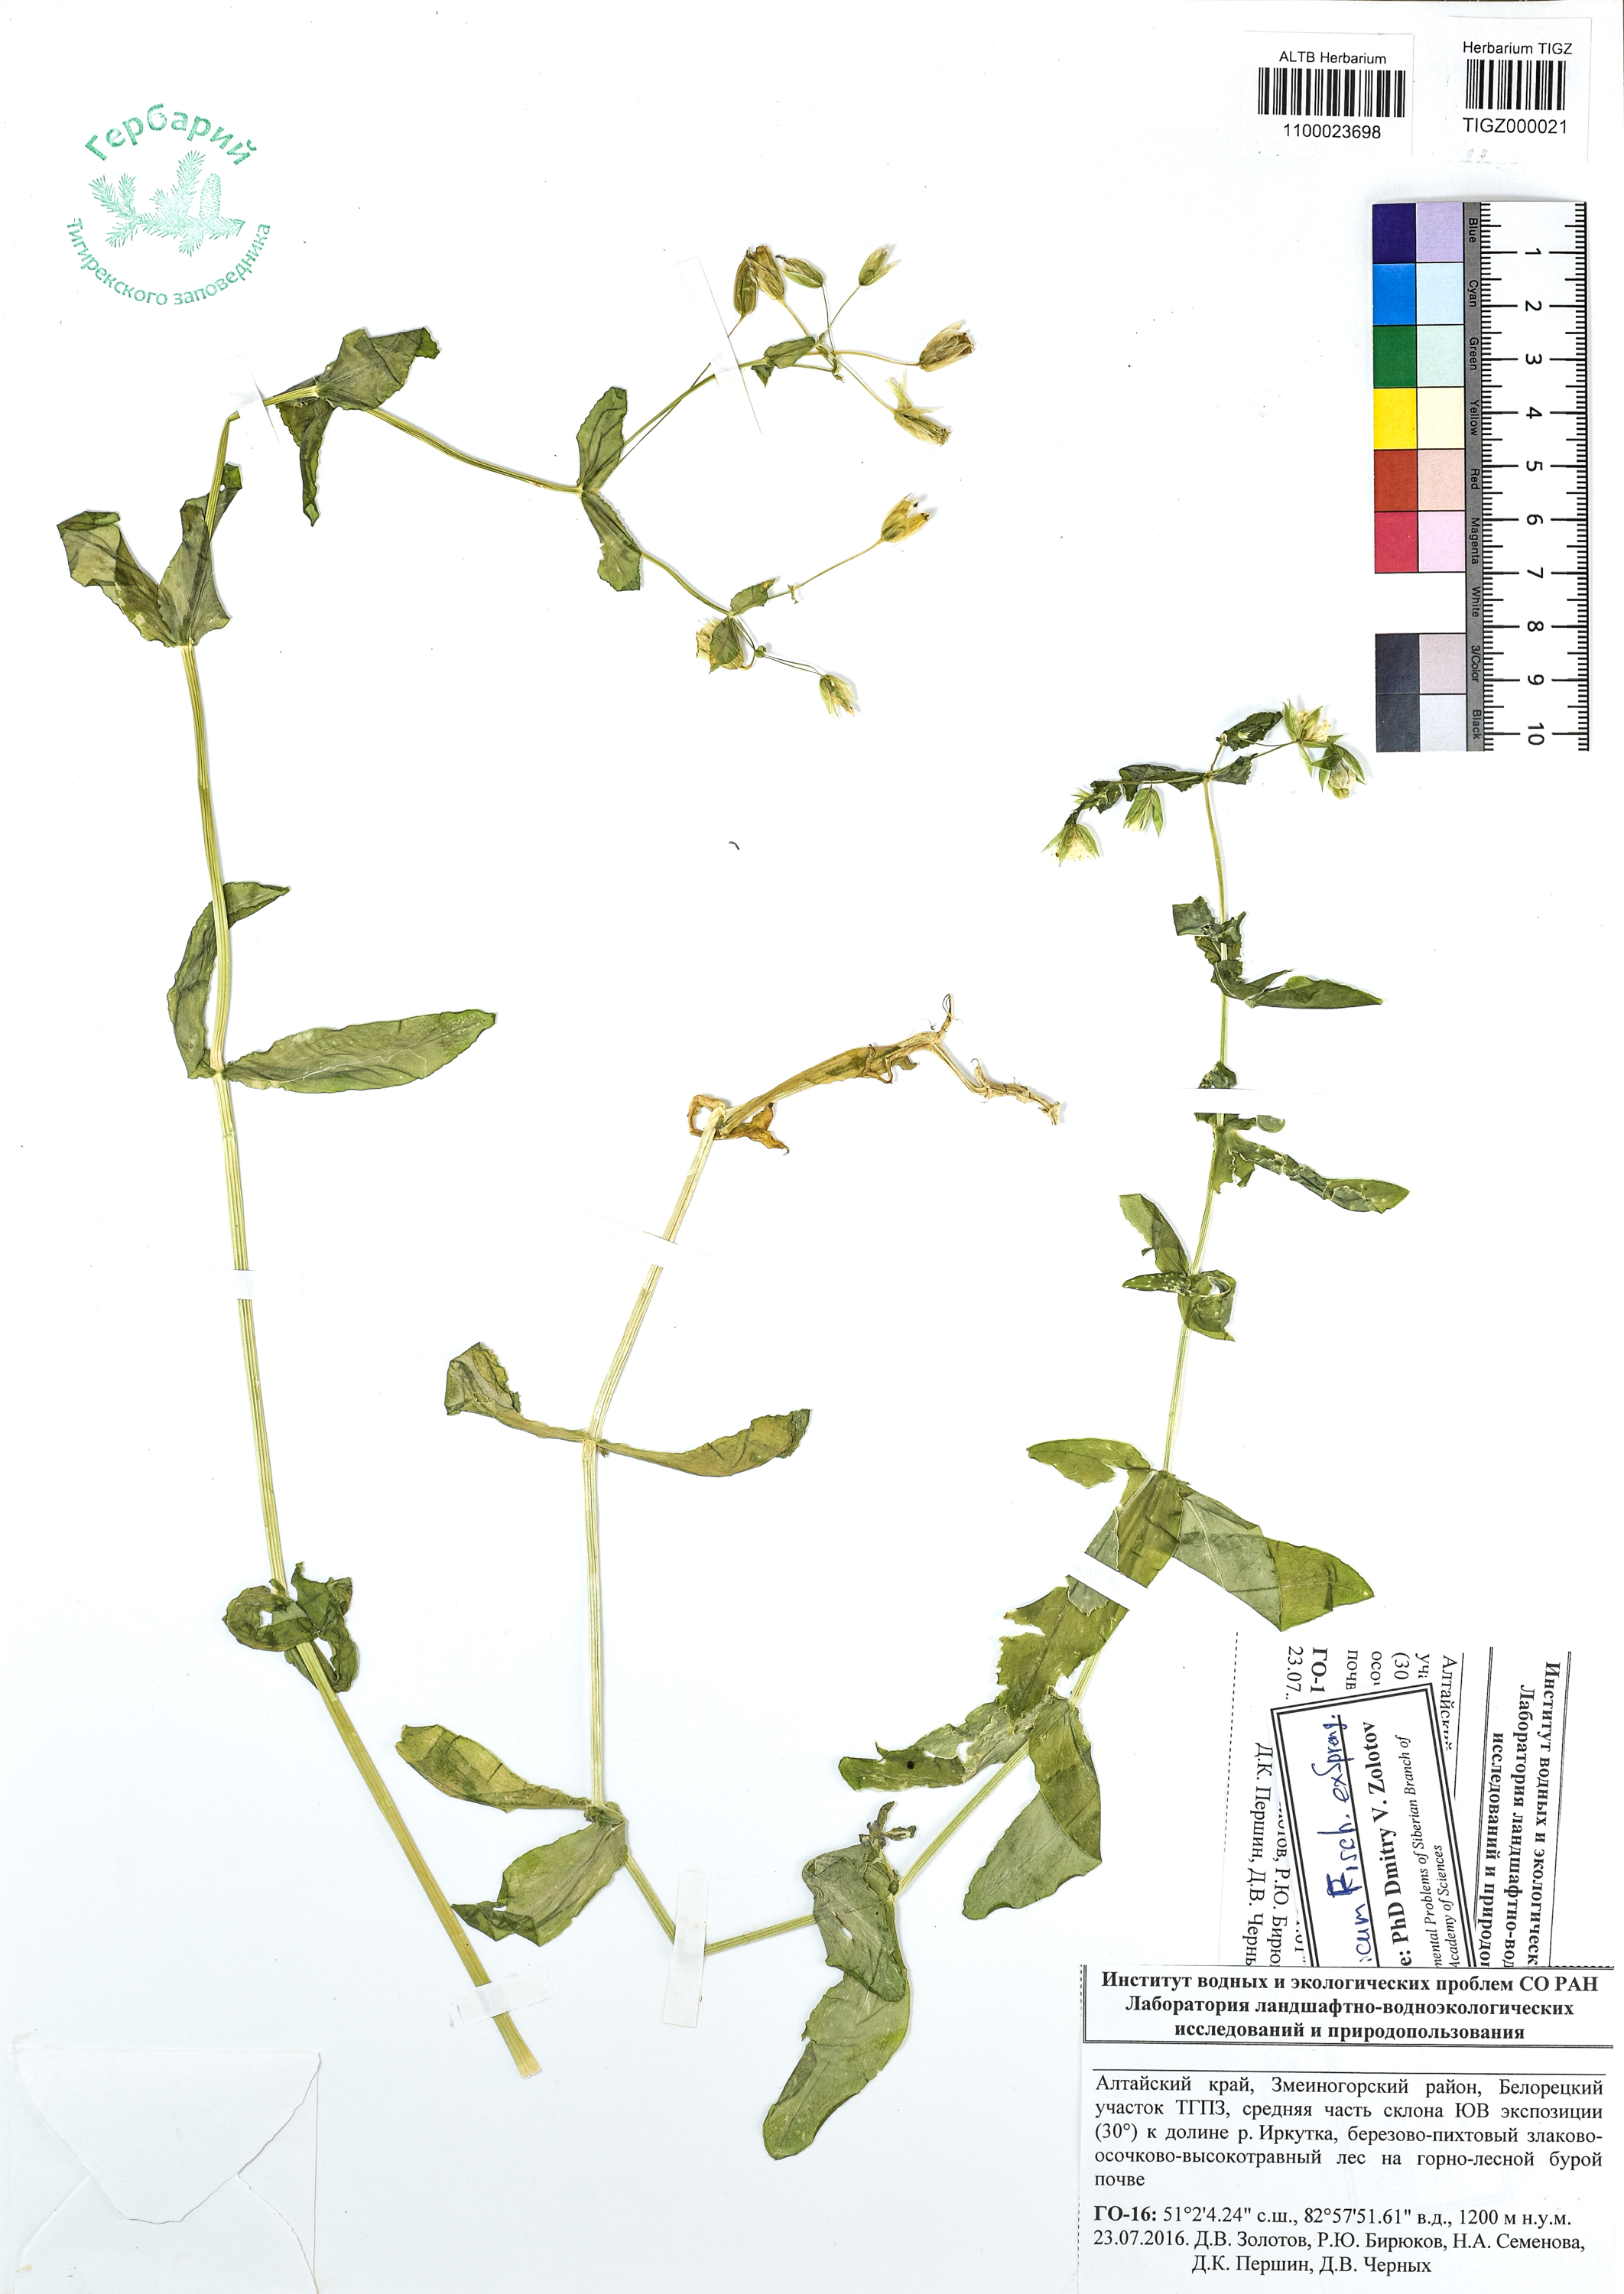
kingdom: Plantae
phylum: Tracheophyta
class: Magnoliopsida
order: Caryophyllales
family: Caryophyllaceae
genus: Dichodon
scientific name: Dichodon davuricum
